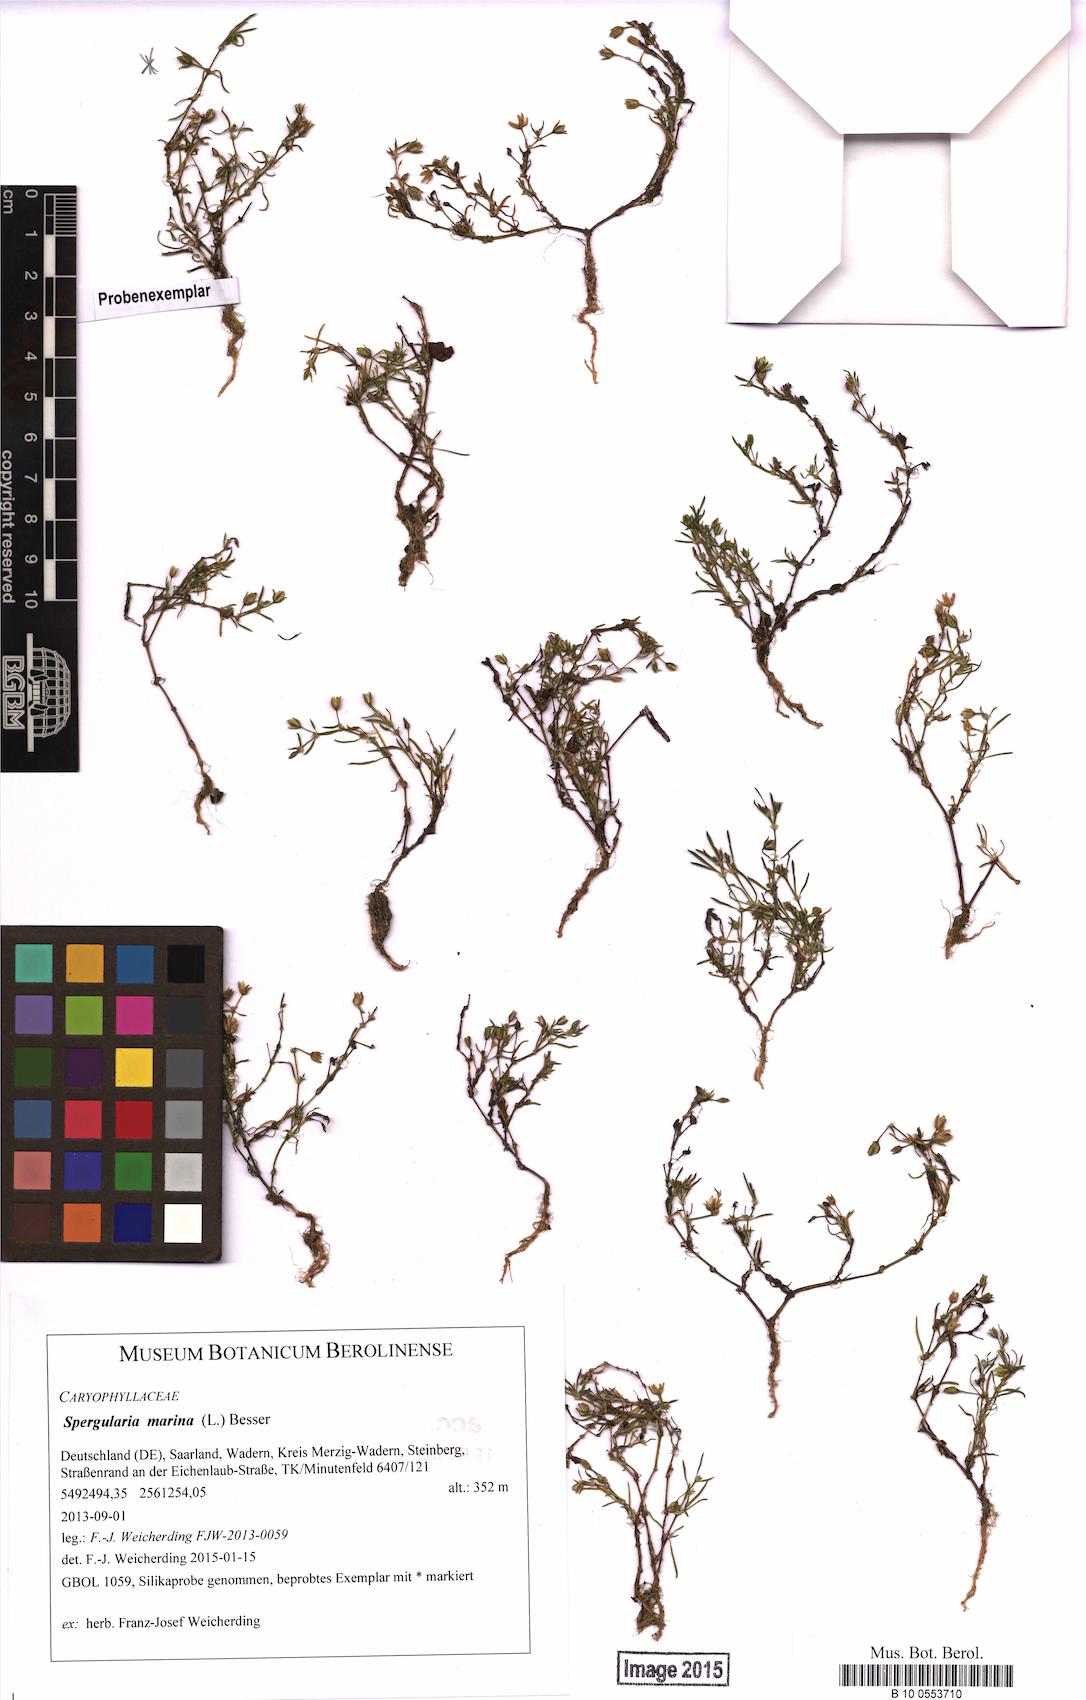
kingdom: Plantae
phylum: Tracheophyta
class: Magnoliopsida
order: Caryophyllales
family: Caryophyllaceae
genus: Spergularia
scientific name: Spergularia marina
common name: Lesser sea-spurrey
